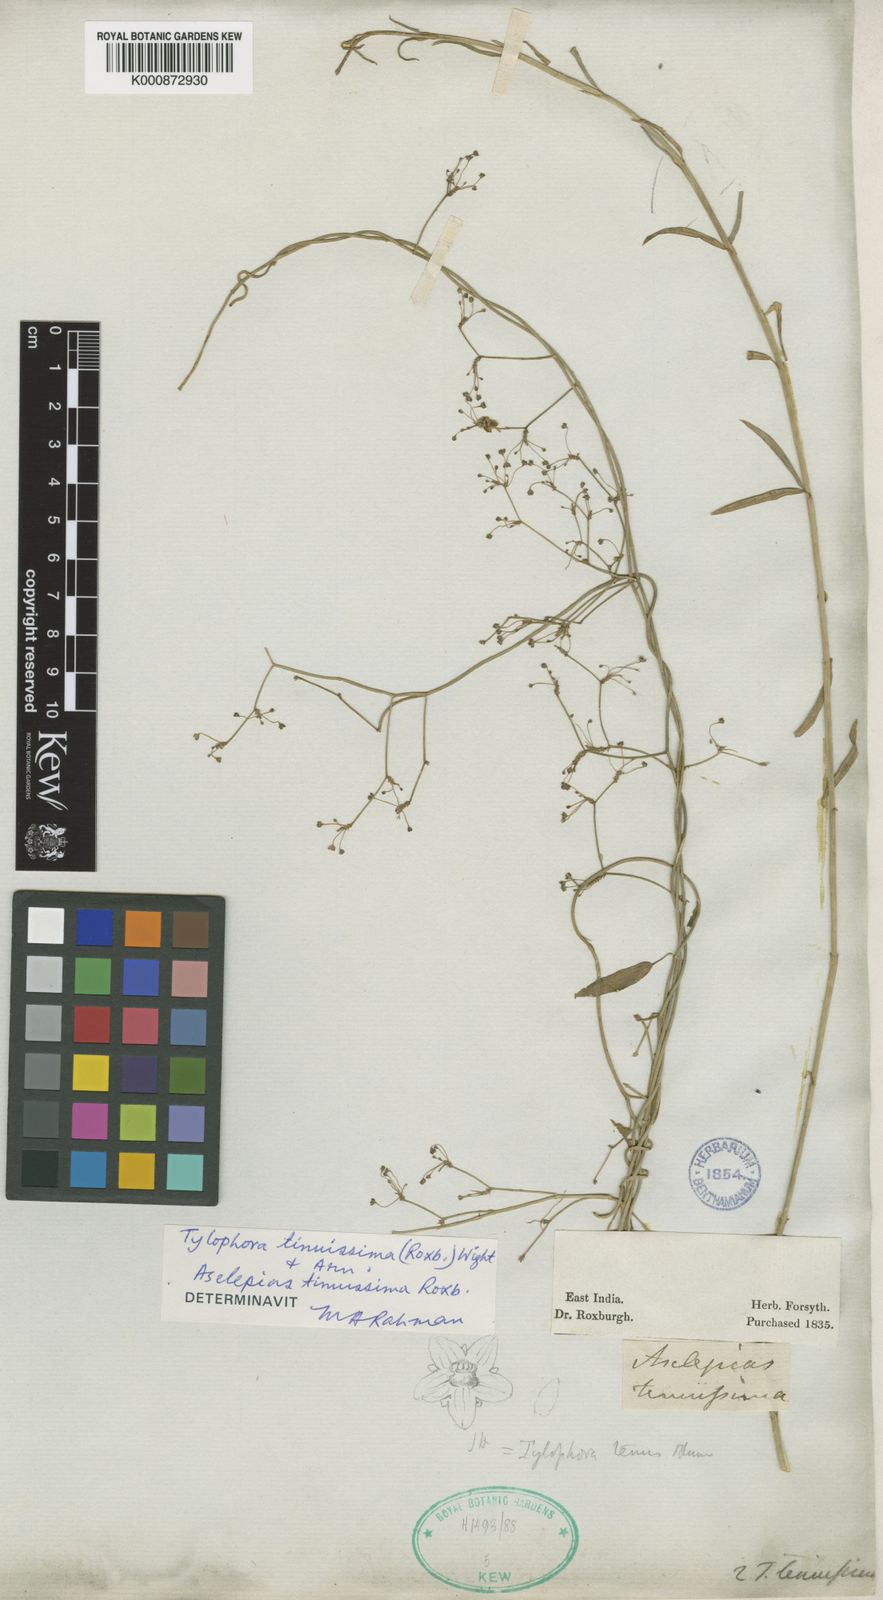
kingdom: Plantae
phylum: Tracheophyta
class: Magnoliopsida
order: Gentianales
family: Apocynaceae
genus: Vincetoxicum
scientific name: Vincetoxicum flexuosum
